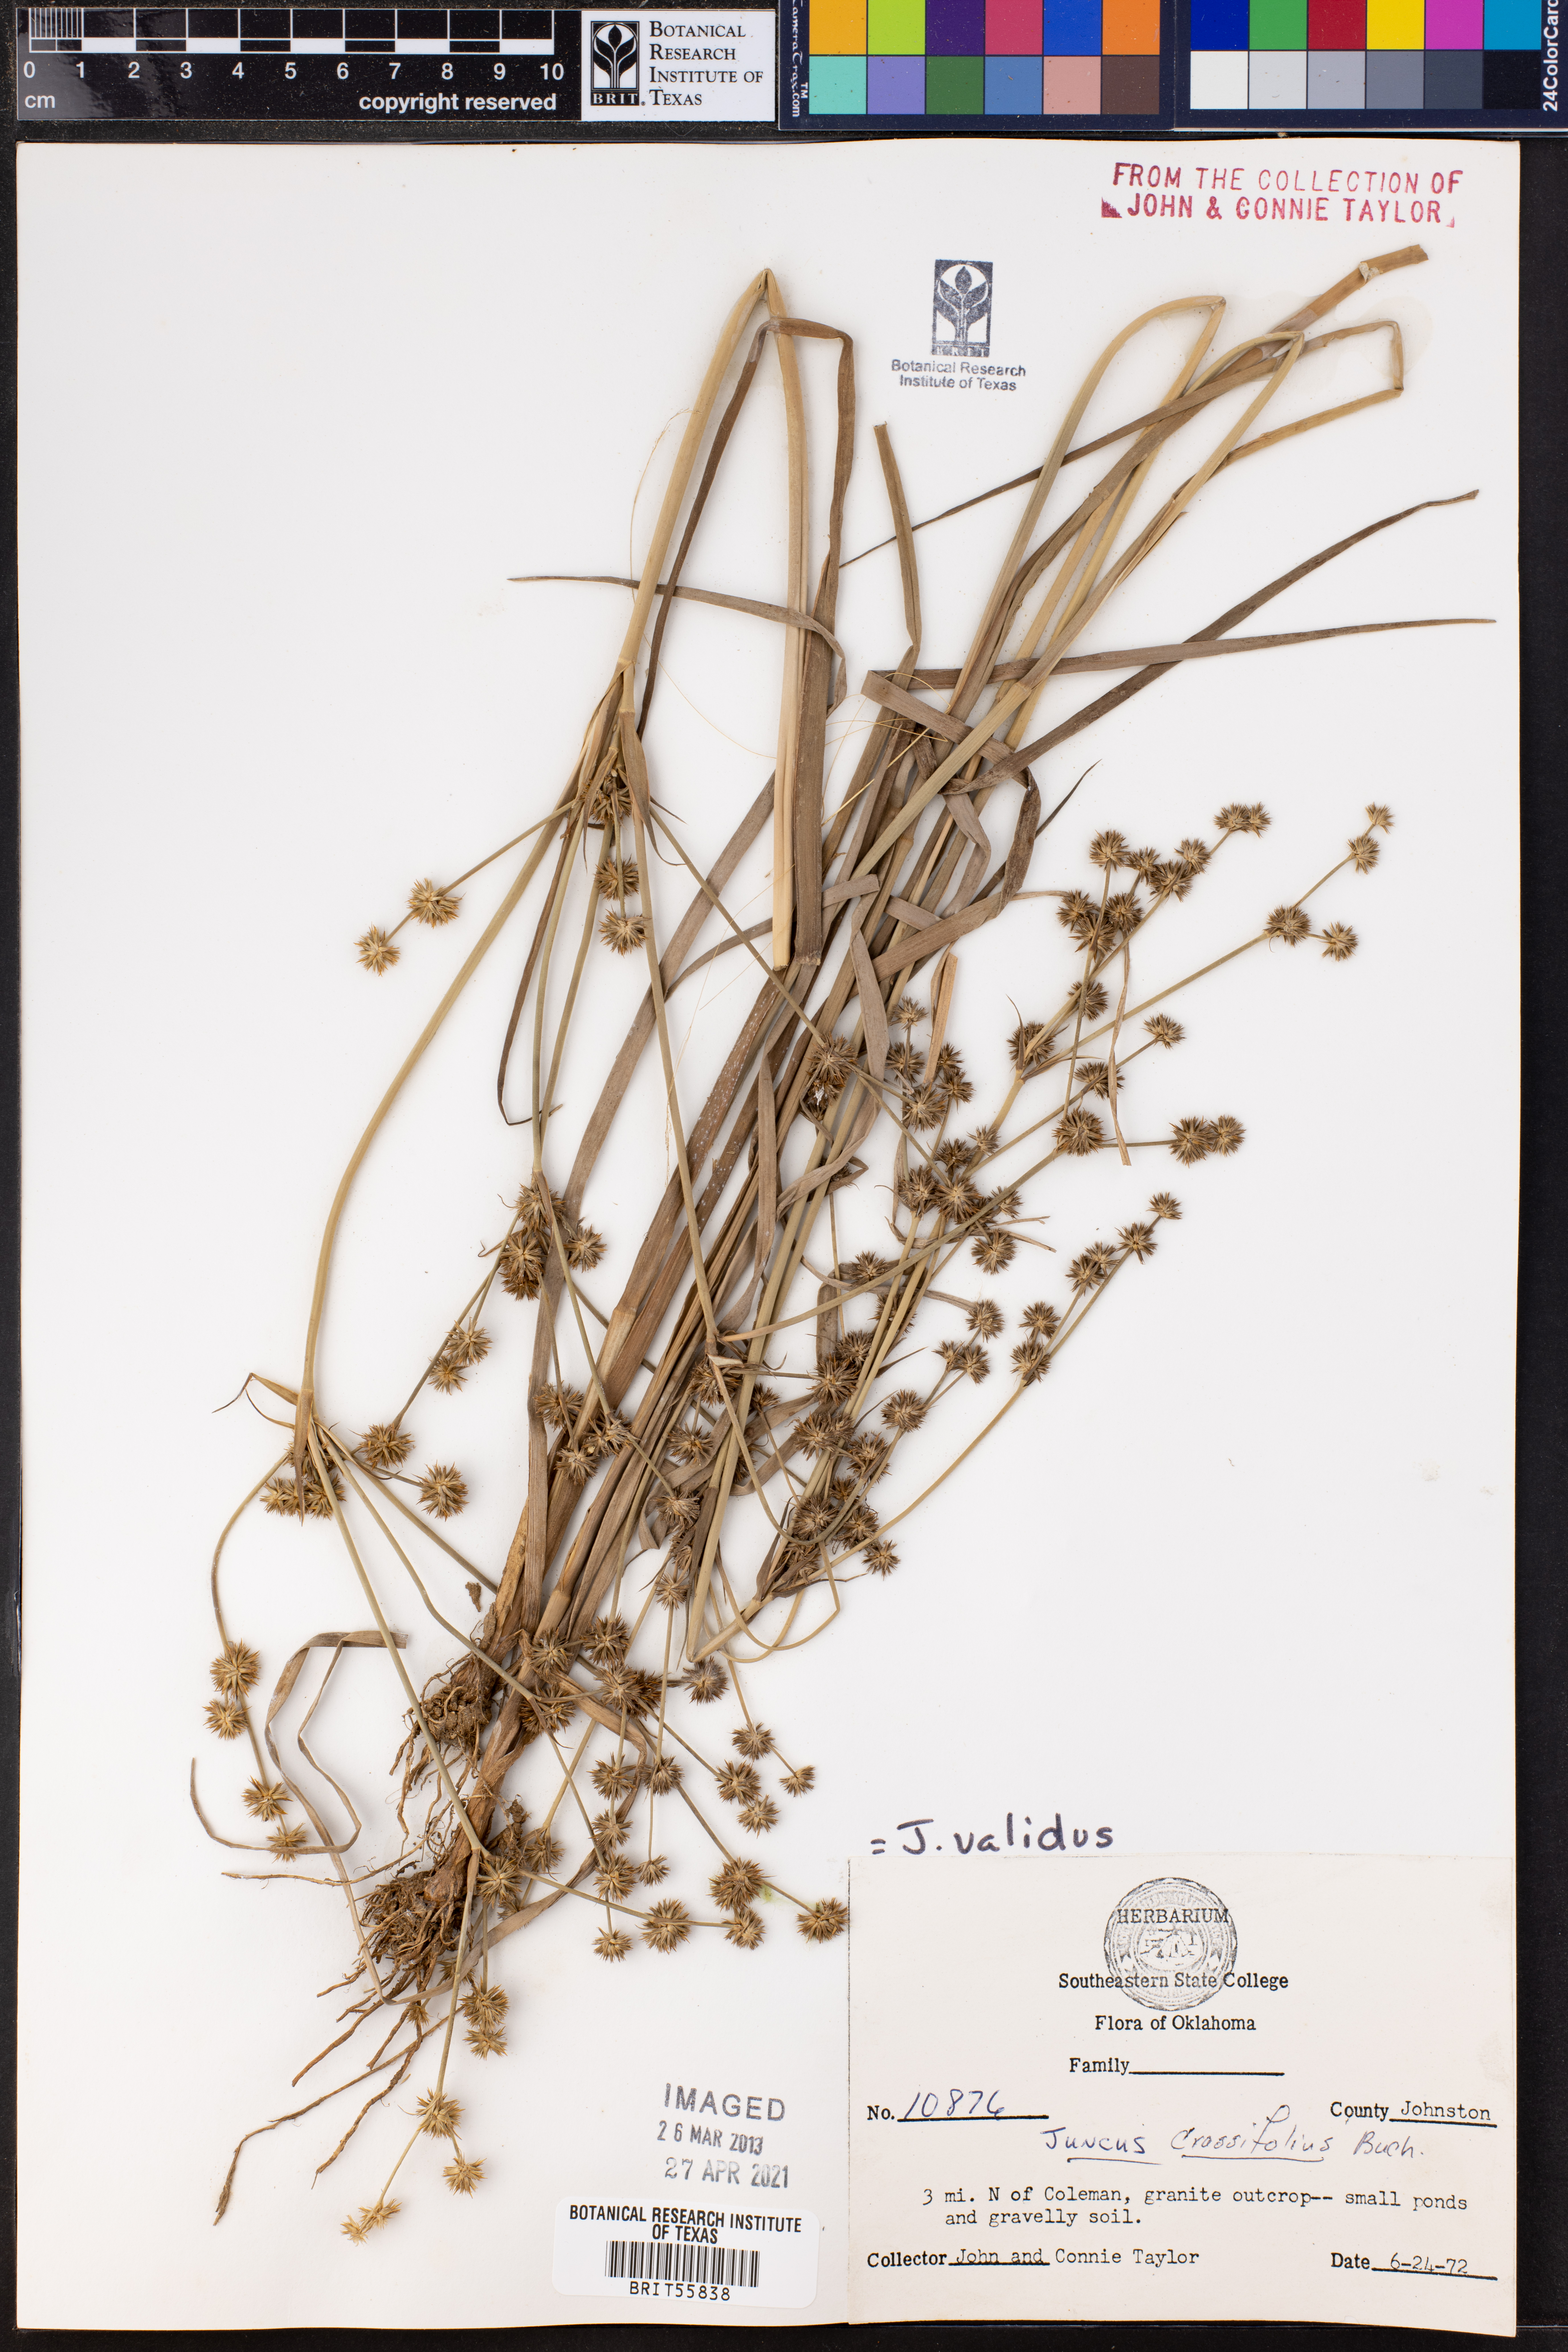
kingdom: Plantae
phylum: Tracheophyta
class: Liliopsida
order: Poales
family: Juncaceae
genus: Juncus
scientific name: Juncus validus
